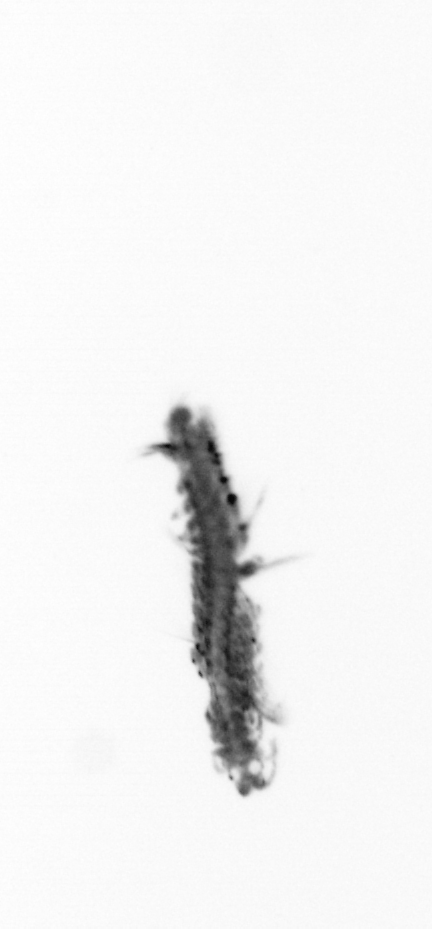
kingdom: Animalia
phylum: Annelida
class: Polychaeta
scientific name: Polychaeta
